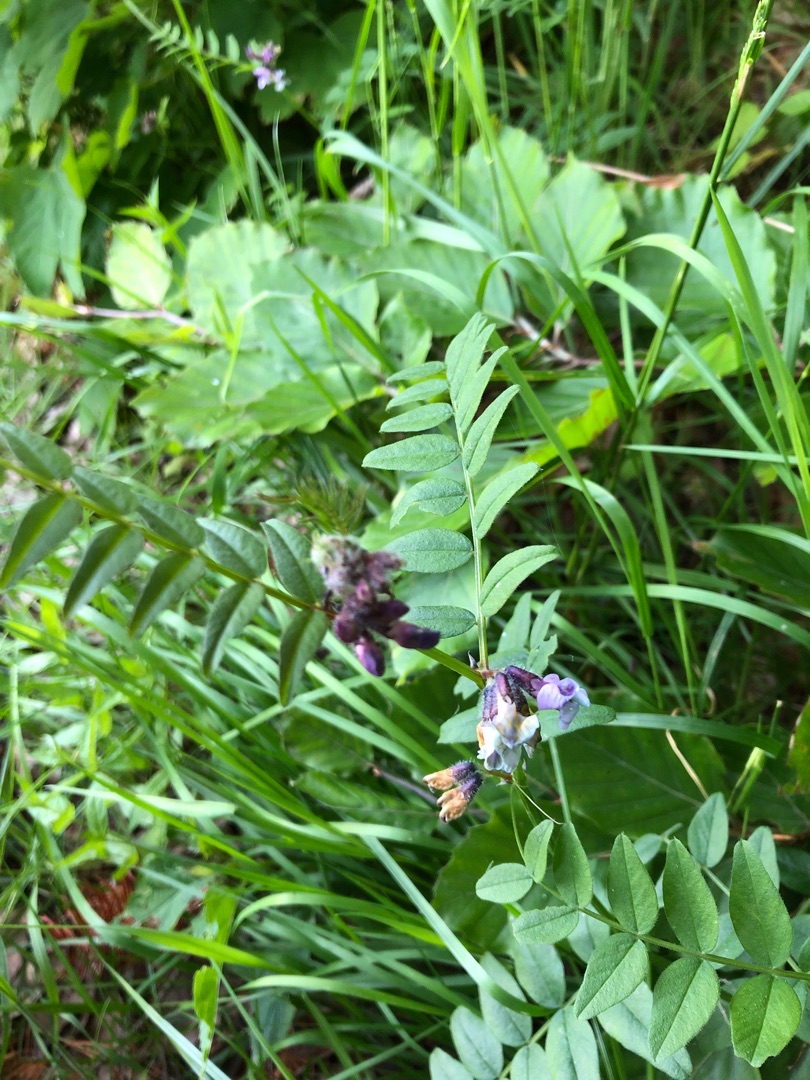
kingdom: Plantae
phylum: Tracheophyta
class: Magnoliopsida
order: Fabales
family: Fabaceae
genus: Vicia
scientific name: Vicia sepium
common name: Gærde-vikke
